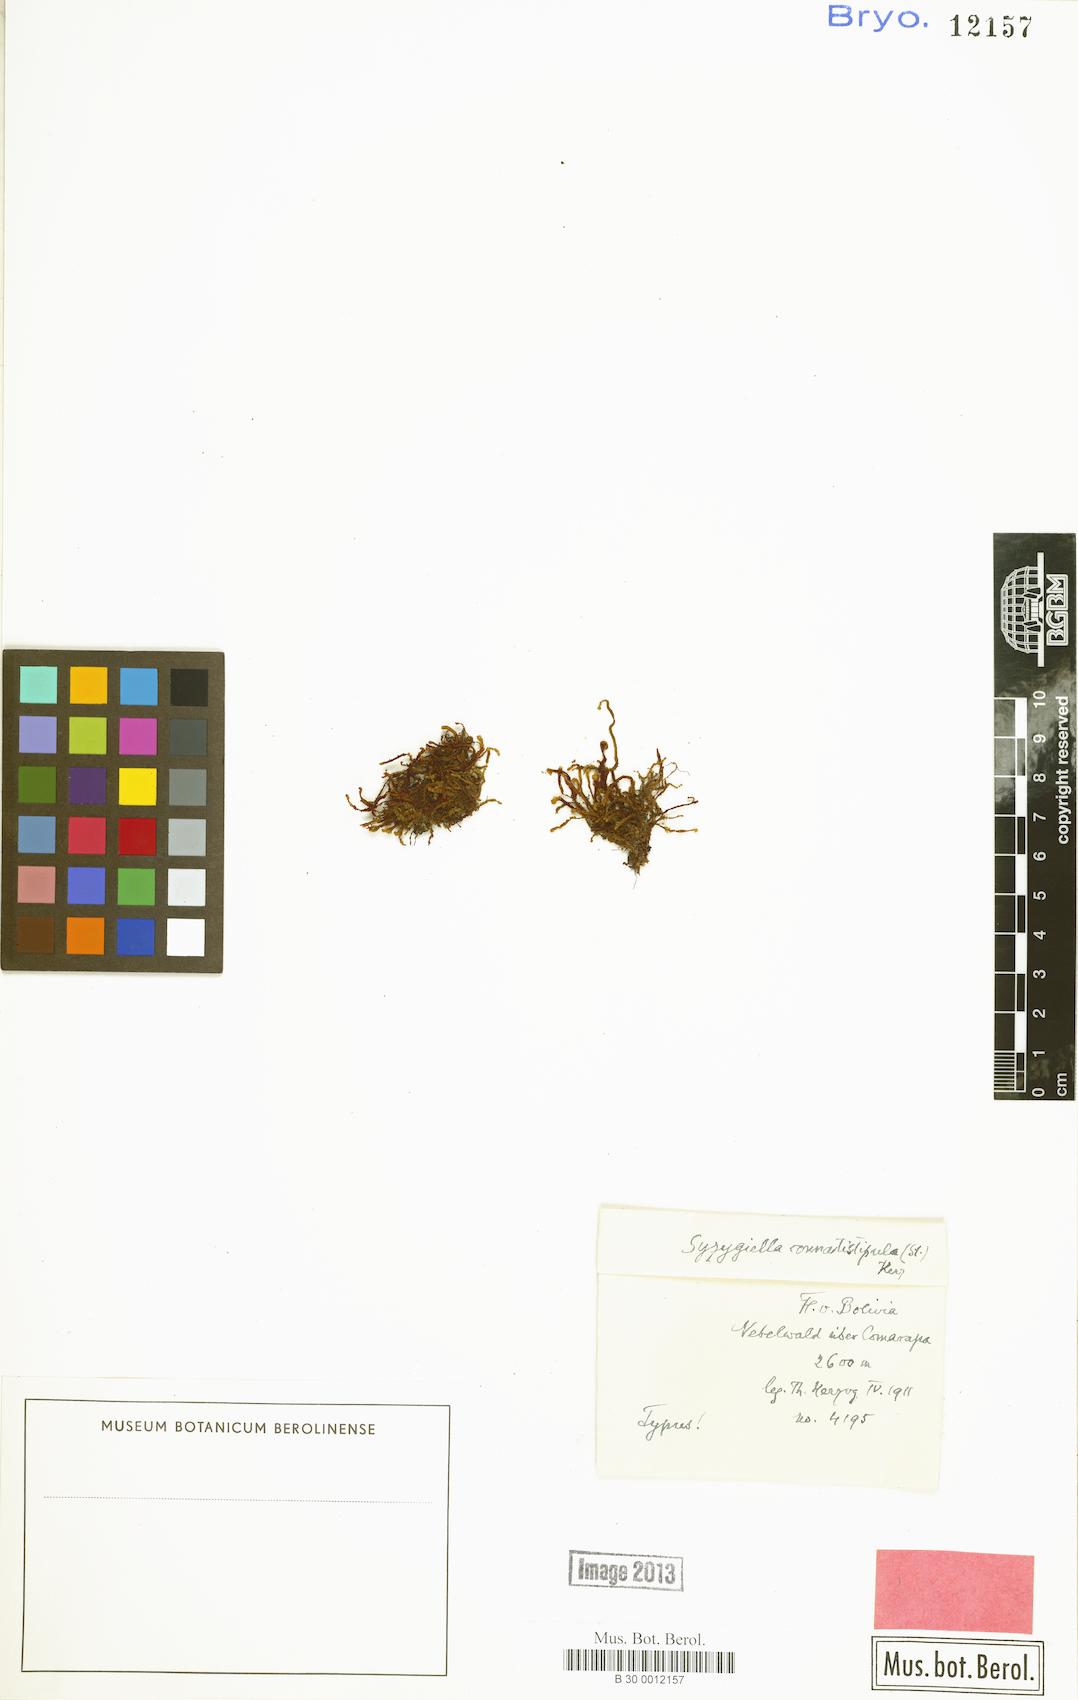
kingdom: Plantae
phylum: Marchantiophyta
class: Jungermanniopsida
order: Jungermanniales
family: Adelanthaceae
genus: Syzygiella
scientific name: Syzygiella
